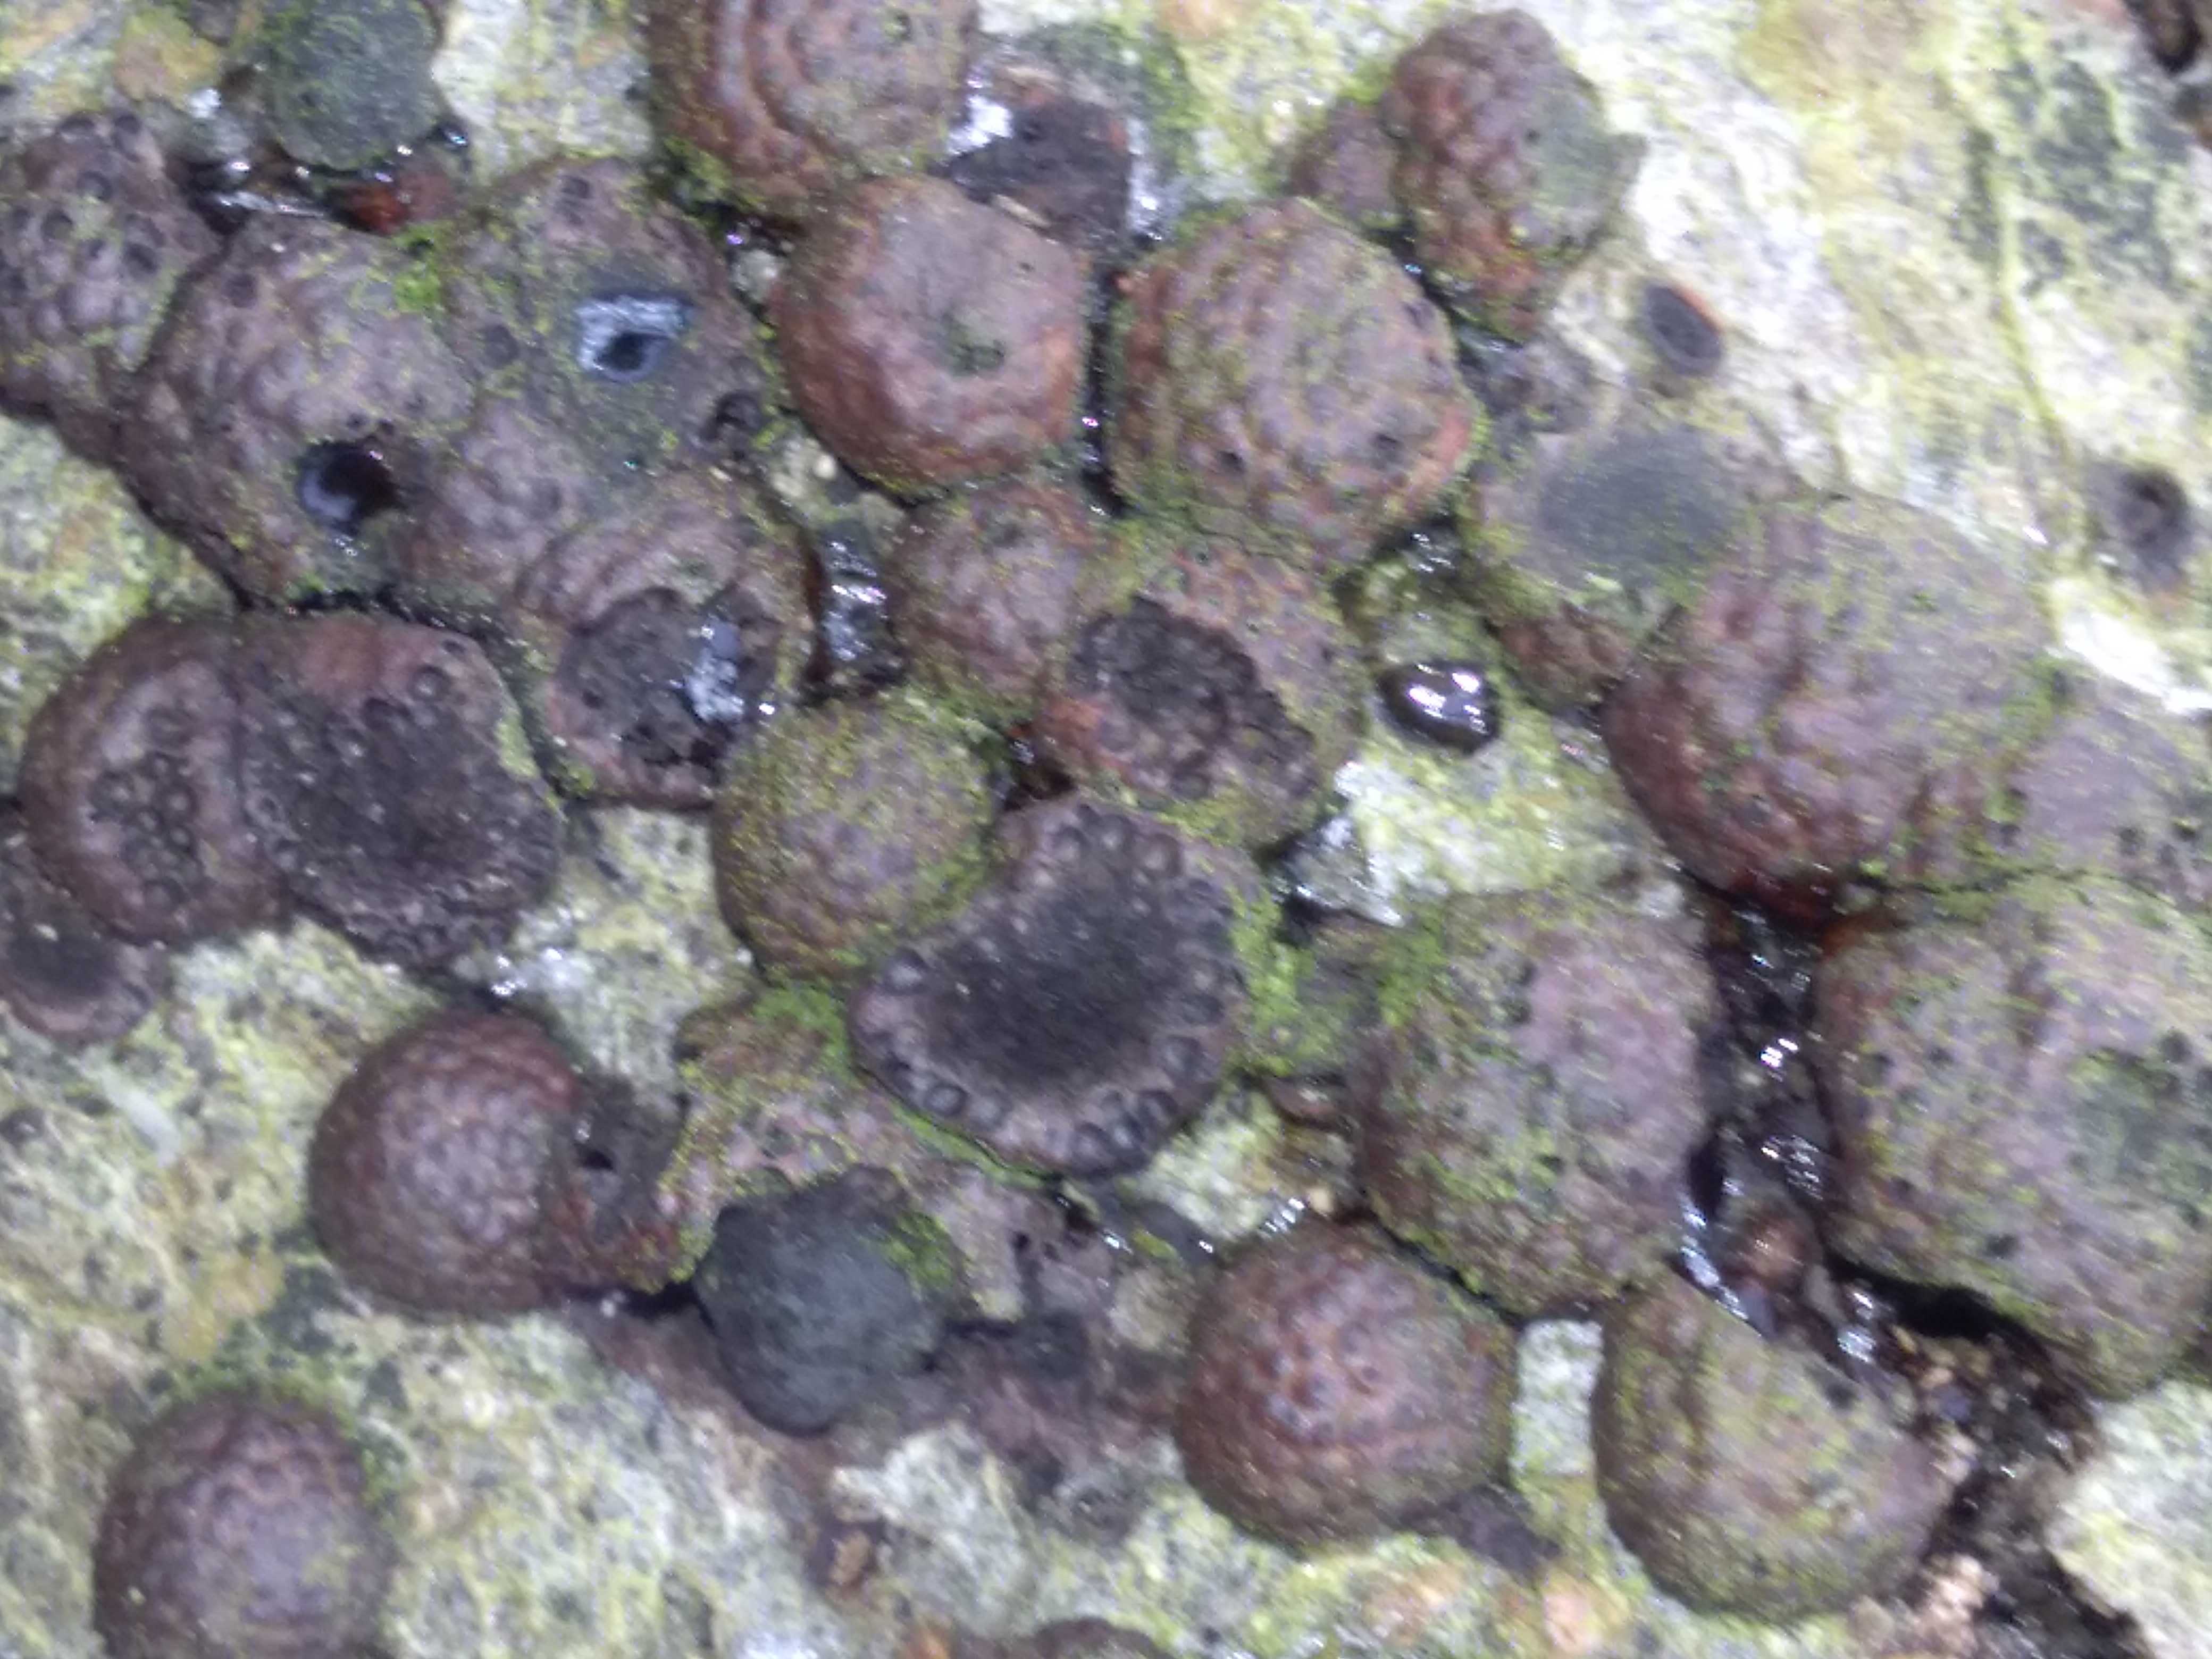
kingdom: Fungi
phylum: Ascomycota
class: Sordariomycetes
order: Xylariales
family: Hypoxylaceae
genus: Hypoxylon
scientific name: Hypoxylon fragiforme
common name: kuljordbær
